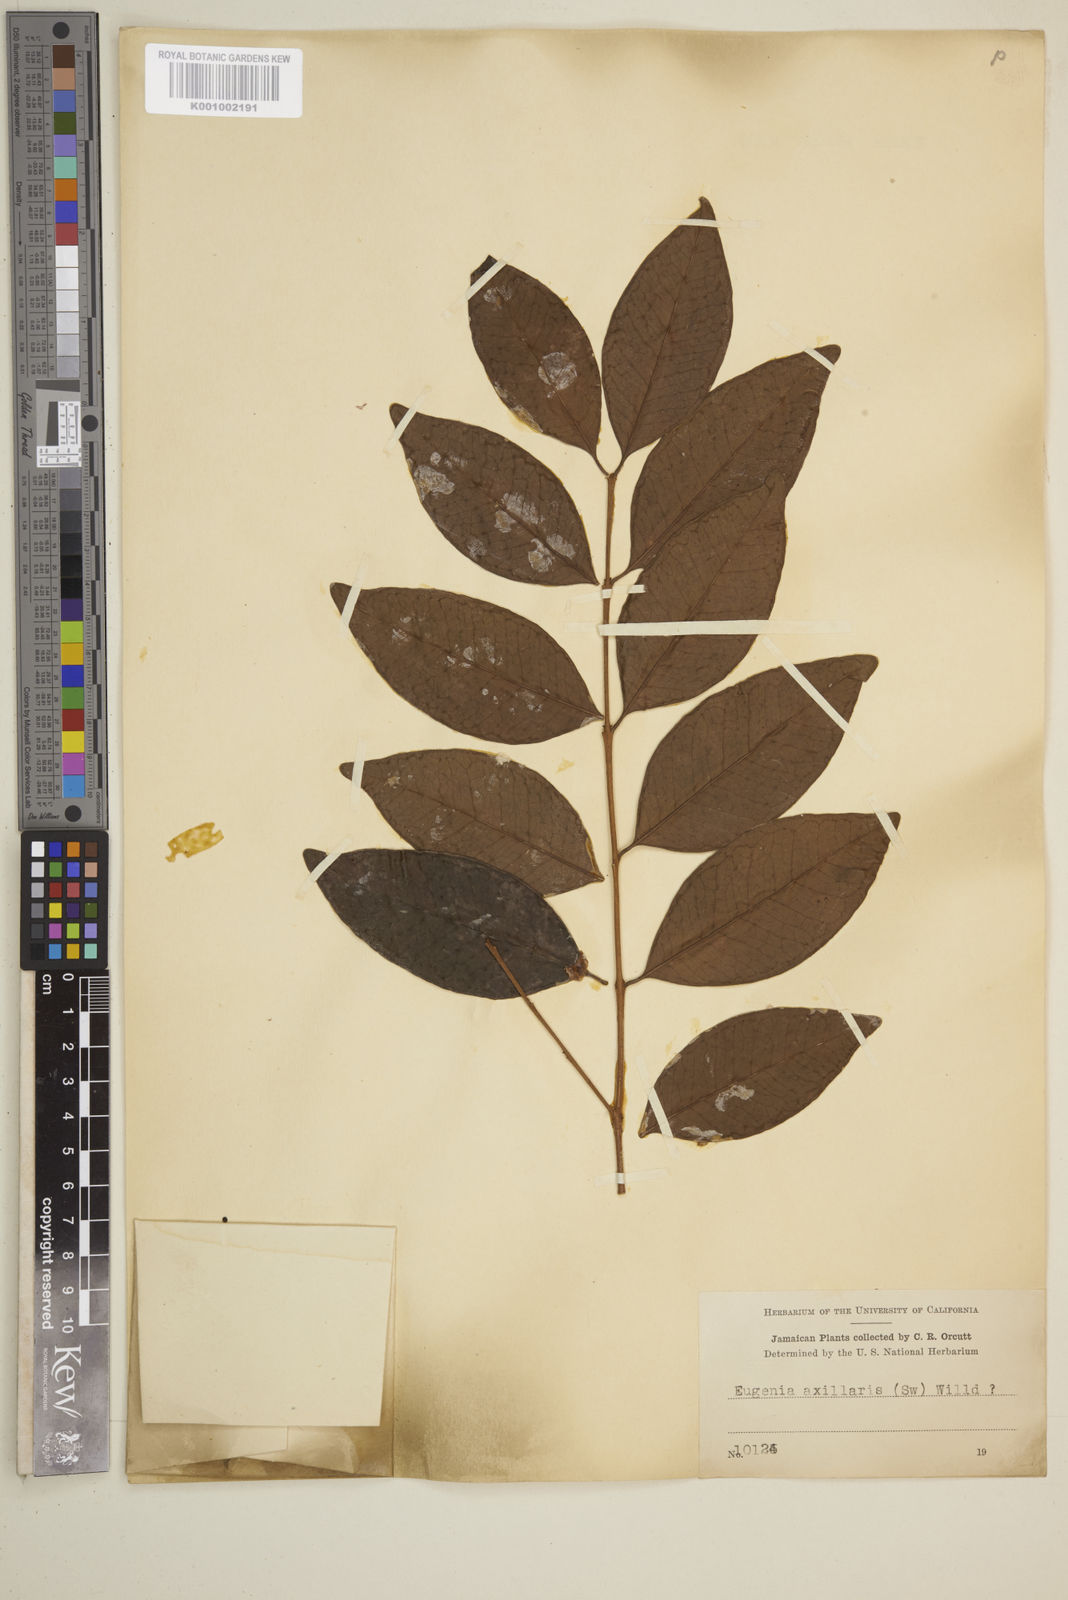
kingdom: Plantae
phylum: Tracheophyta
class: Magnoliopsida
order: Myrtales
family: Myrtaceae
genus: Eugenia
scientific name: Eugenia axillaris
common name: Choaky berry
